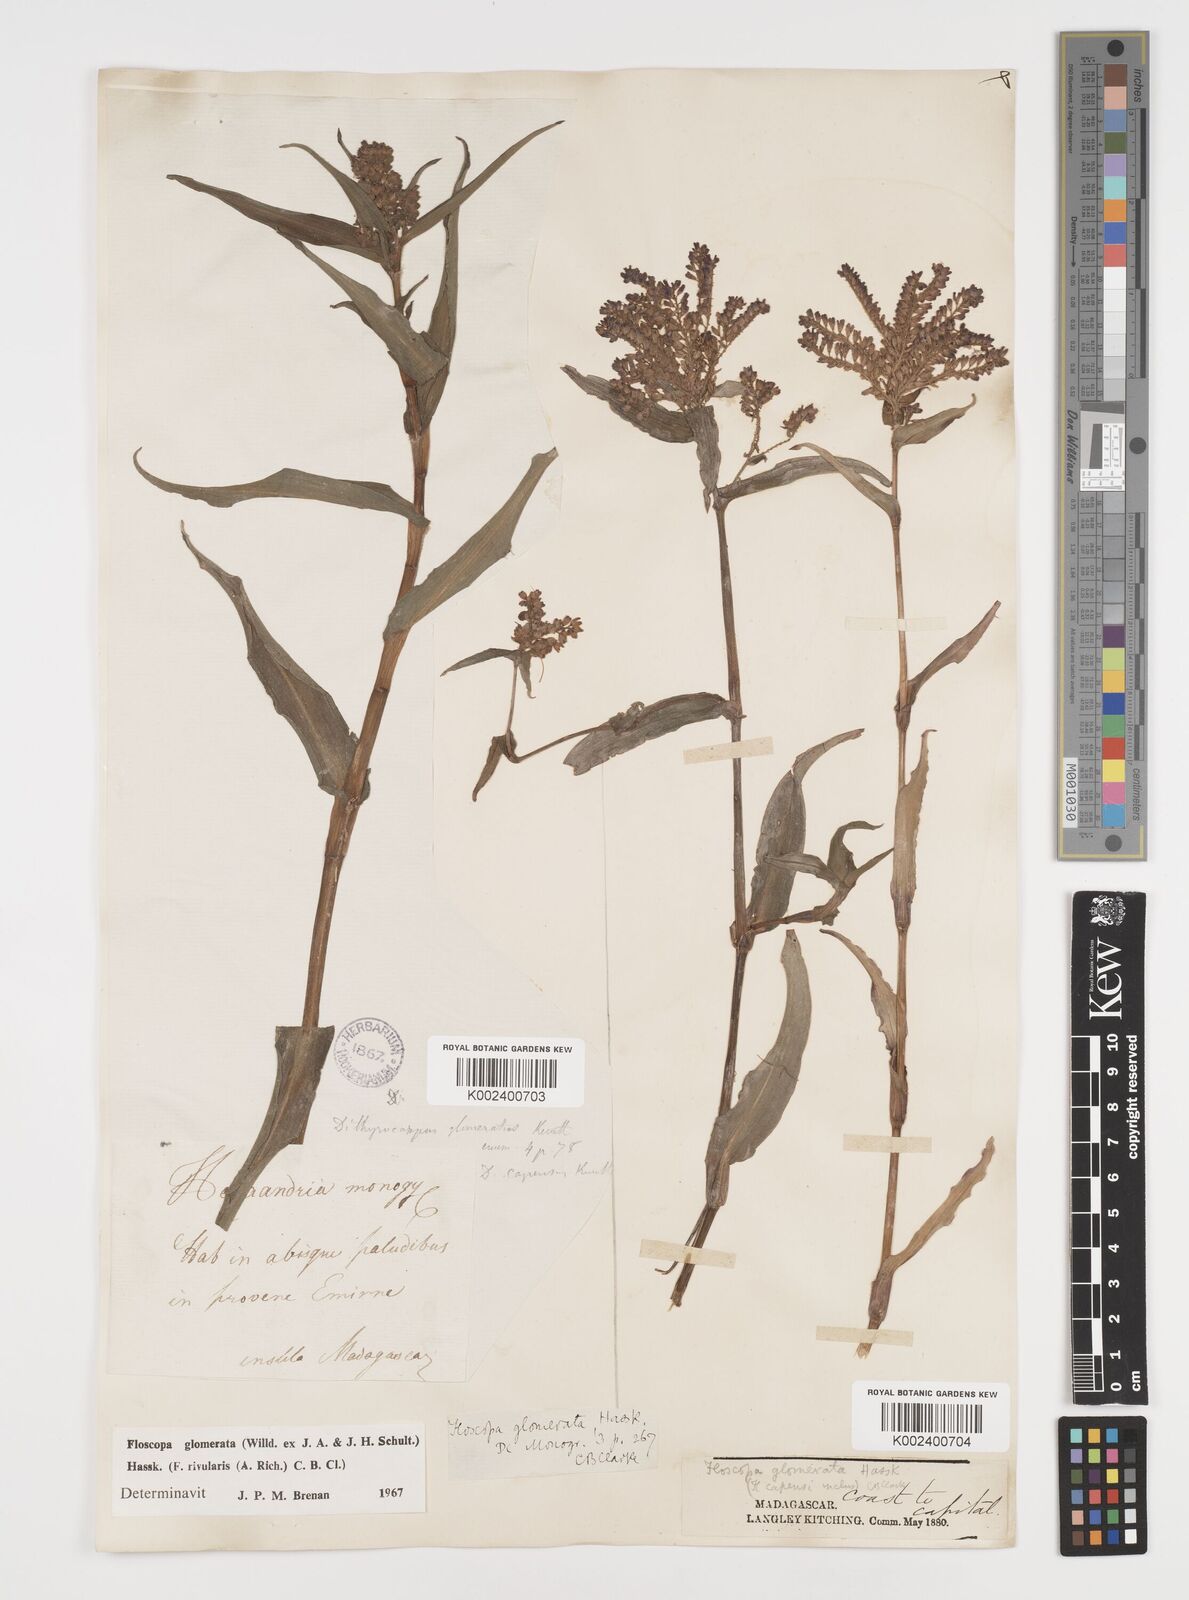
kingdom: Plantae
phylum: Tracheophyta
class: Liliopsida
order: Commelinales
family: Commelinaceae
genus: Floscopa
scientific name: Floscopa glomerata
